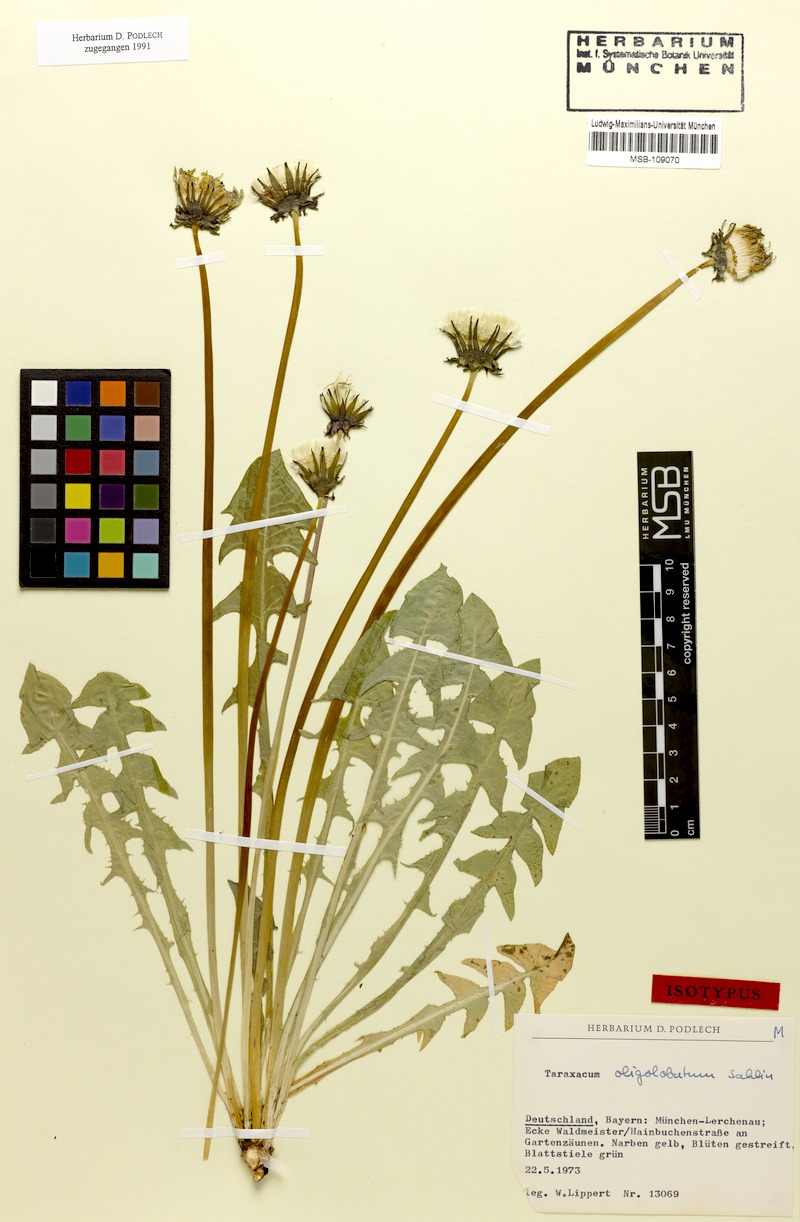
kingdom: Plantae
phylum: Tracheophyta
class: Magnoliopsida
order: Asterales
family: Asteraceae
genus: Taraxacum
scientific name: Taraxacum oligolobatum
